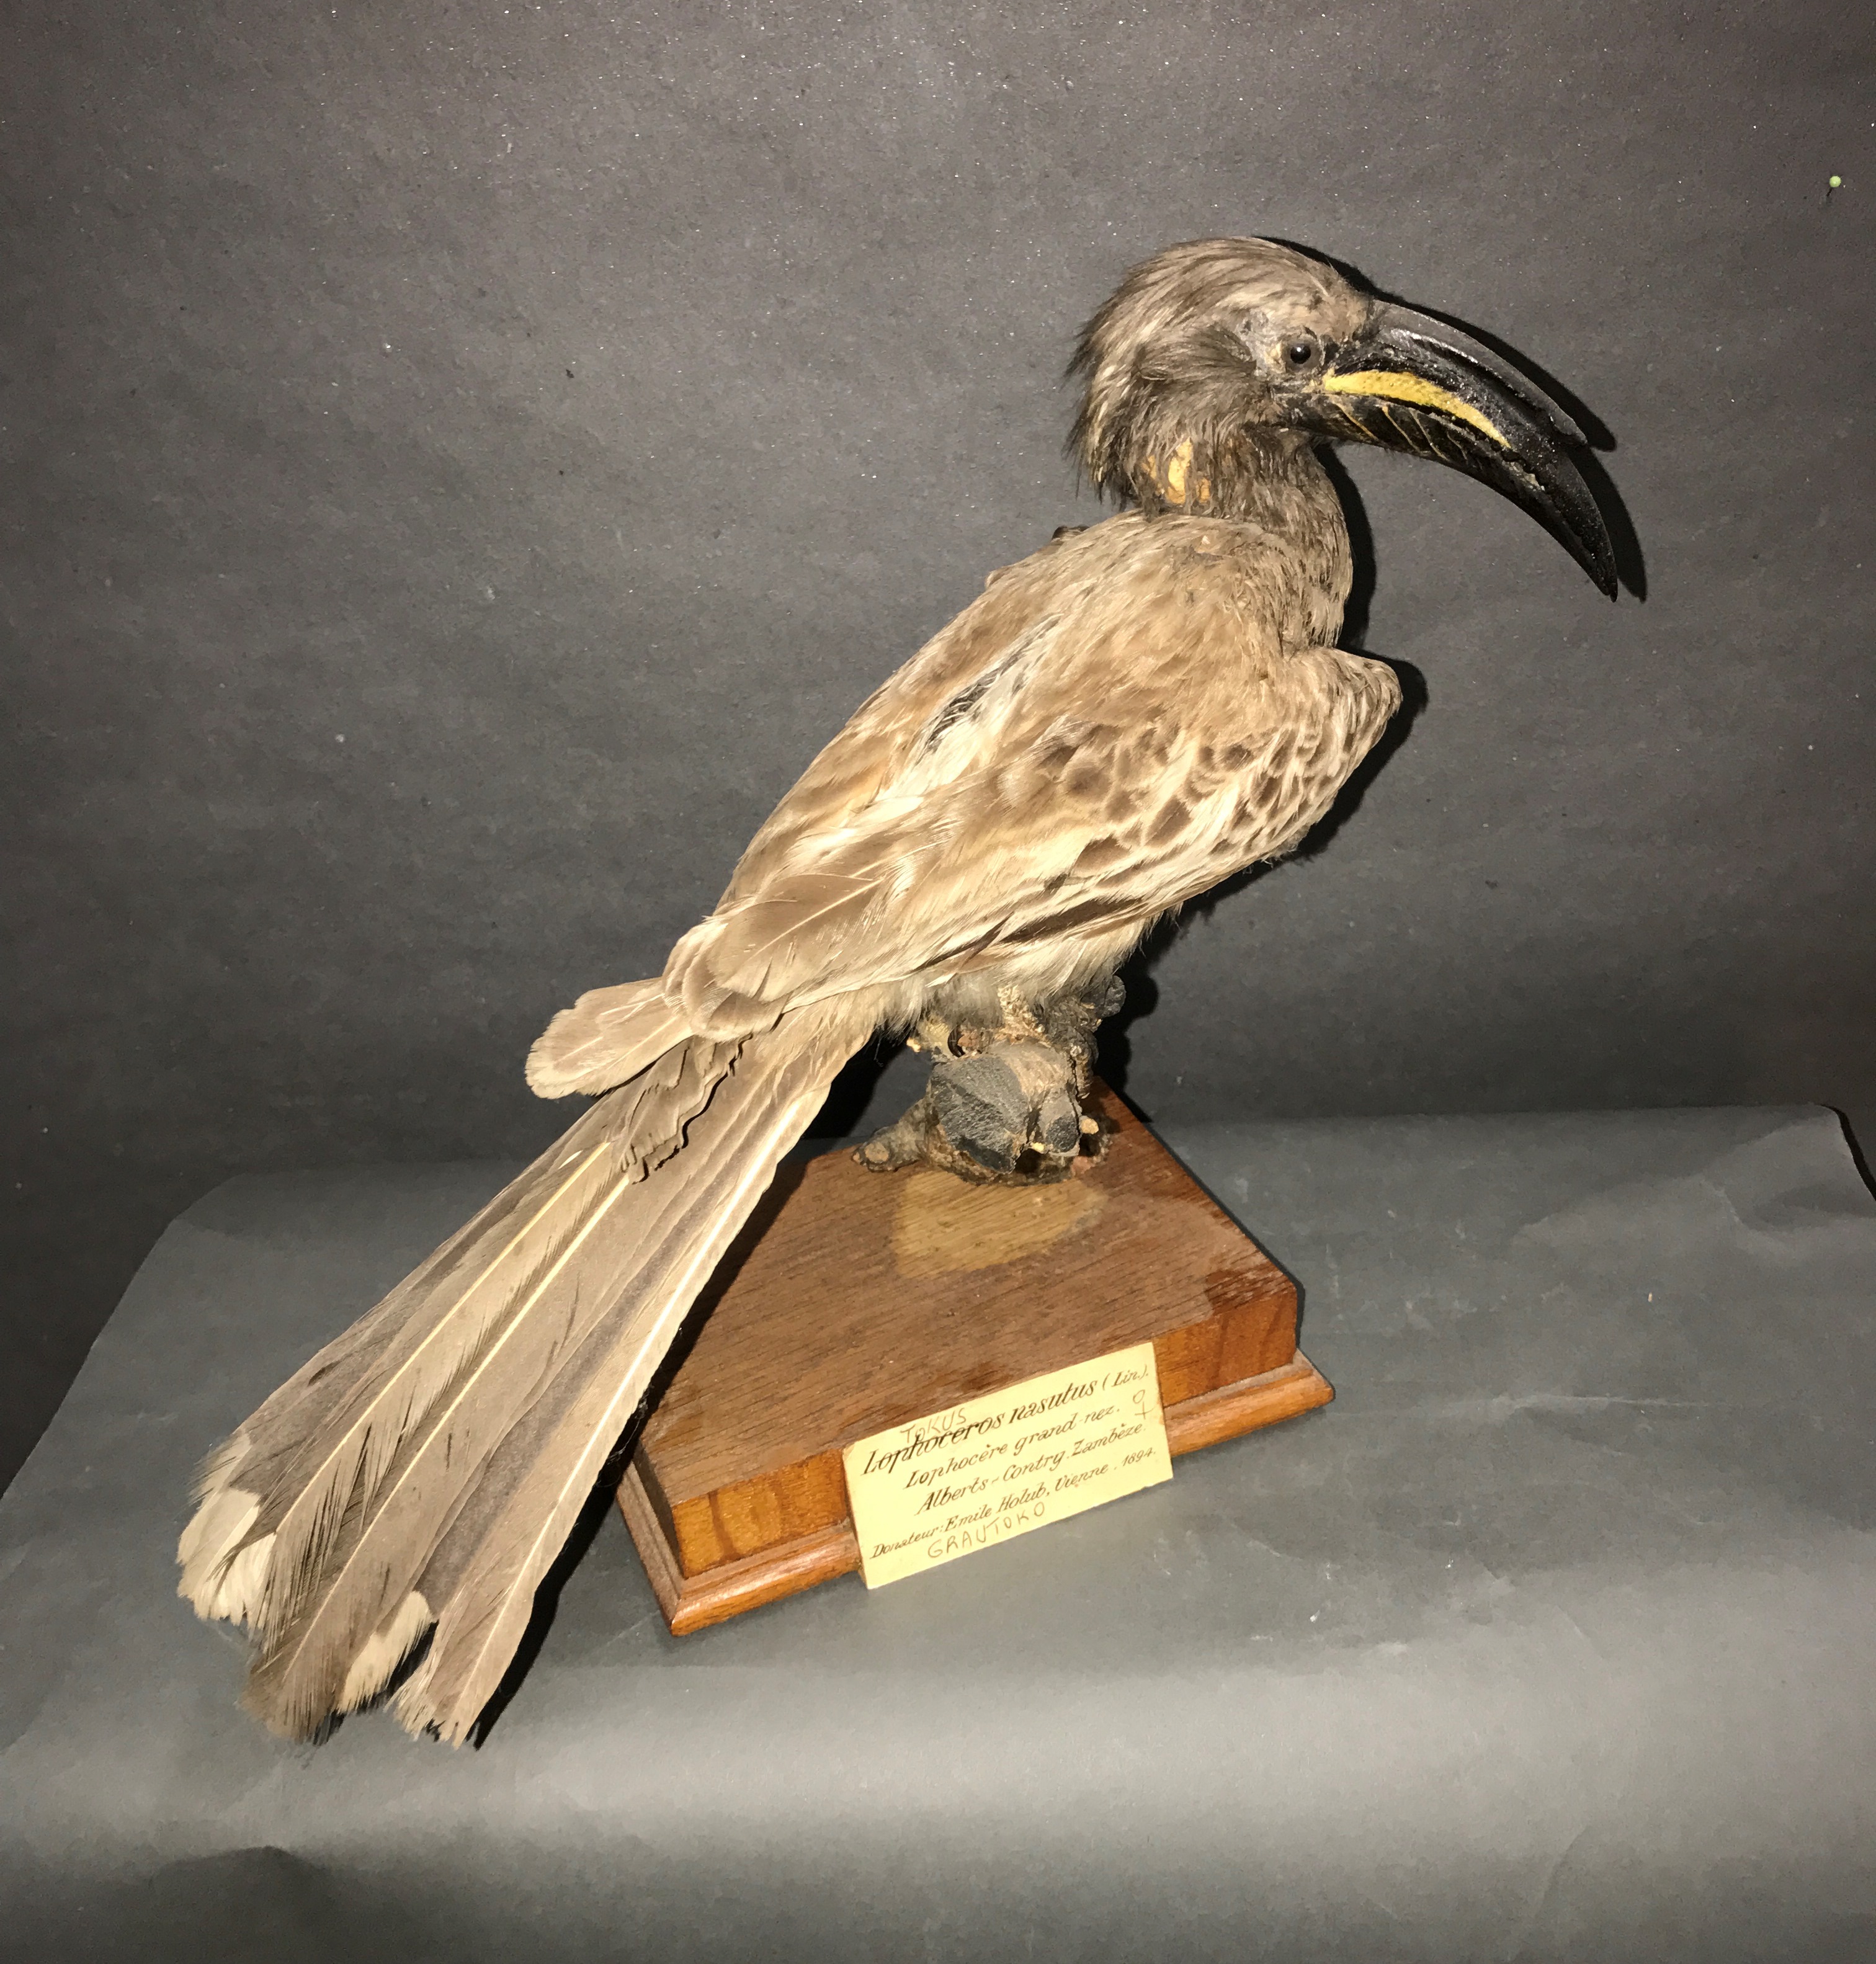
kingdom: Animalia
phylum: Chordata
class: Aves
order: Bucerotiformes
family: Bucerotidae
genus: Lophoceros
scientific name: Lophoceros nasutus
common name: African grey hornbill
